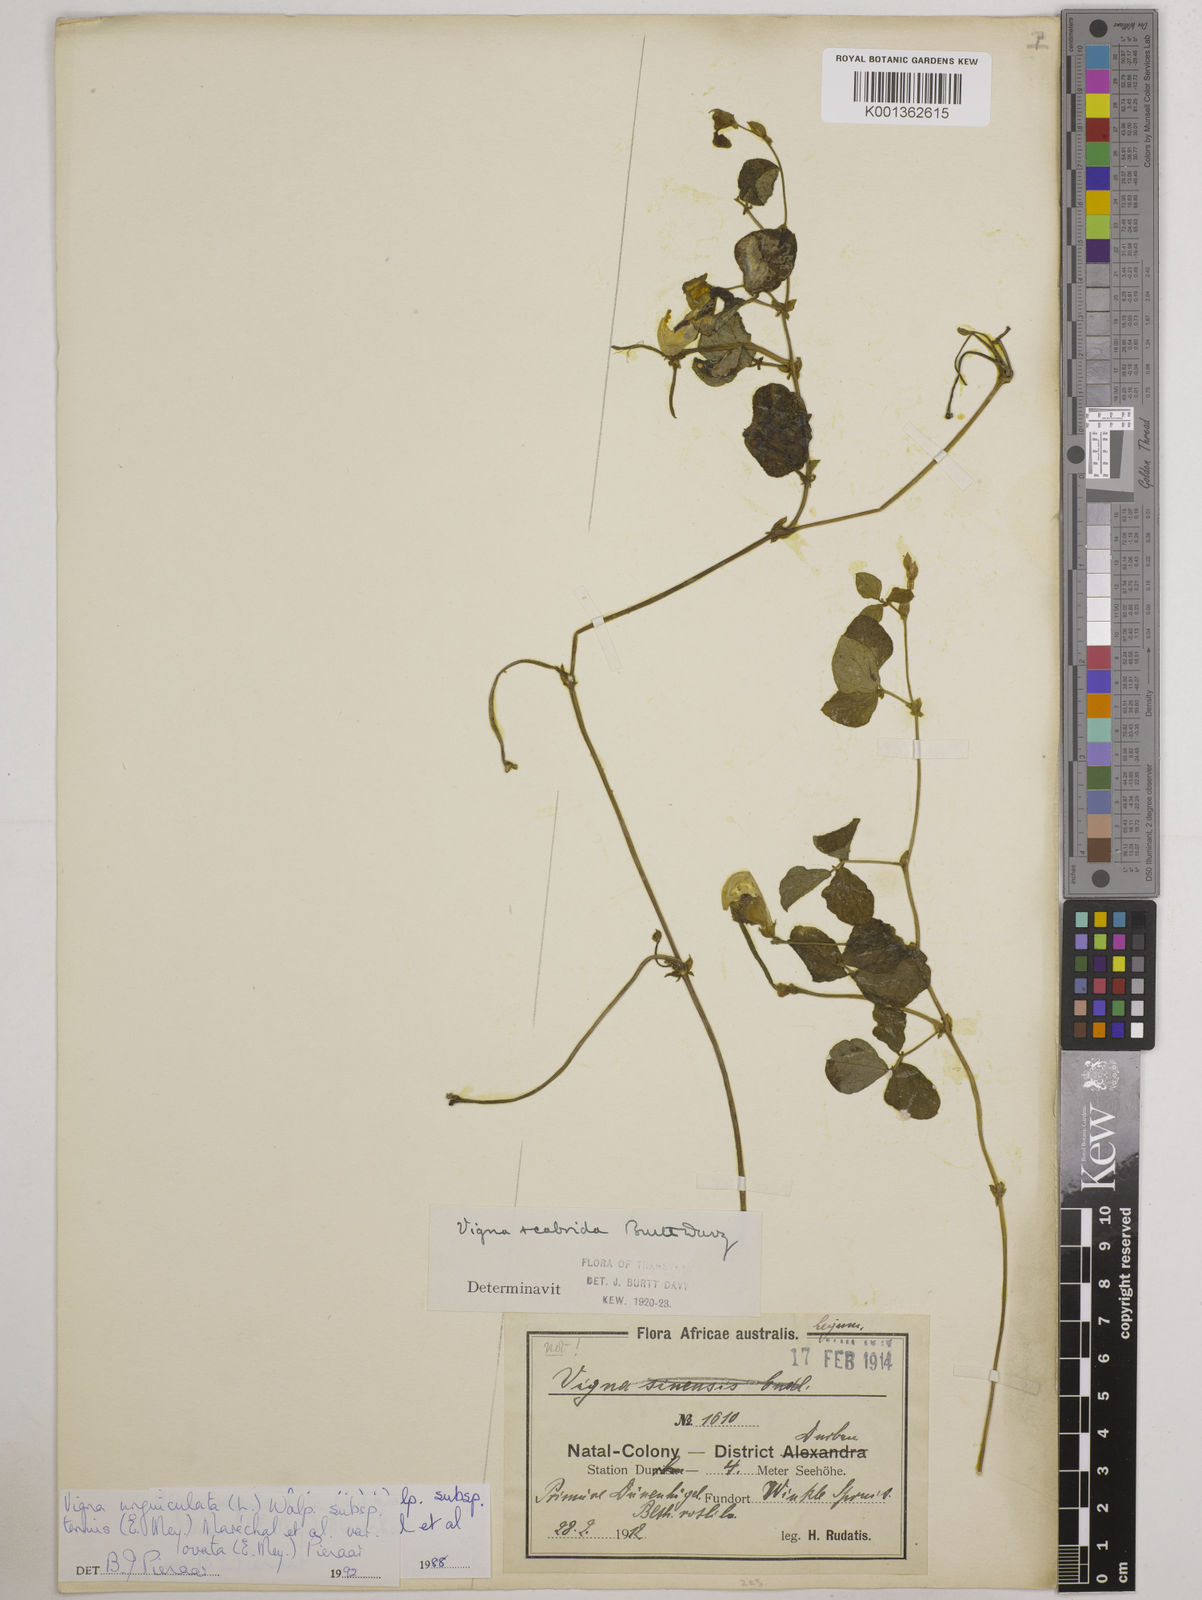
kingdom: Plantae
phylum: Tracheophyta
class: Magnoliopsida
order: Fabales
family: Fabaceae
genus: Vigna
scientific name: Vigna
